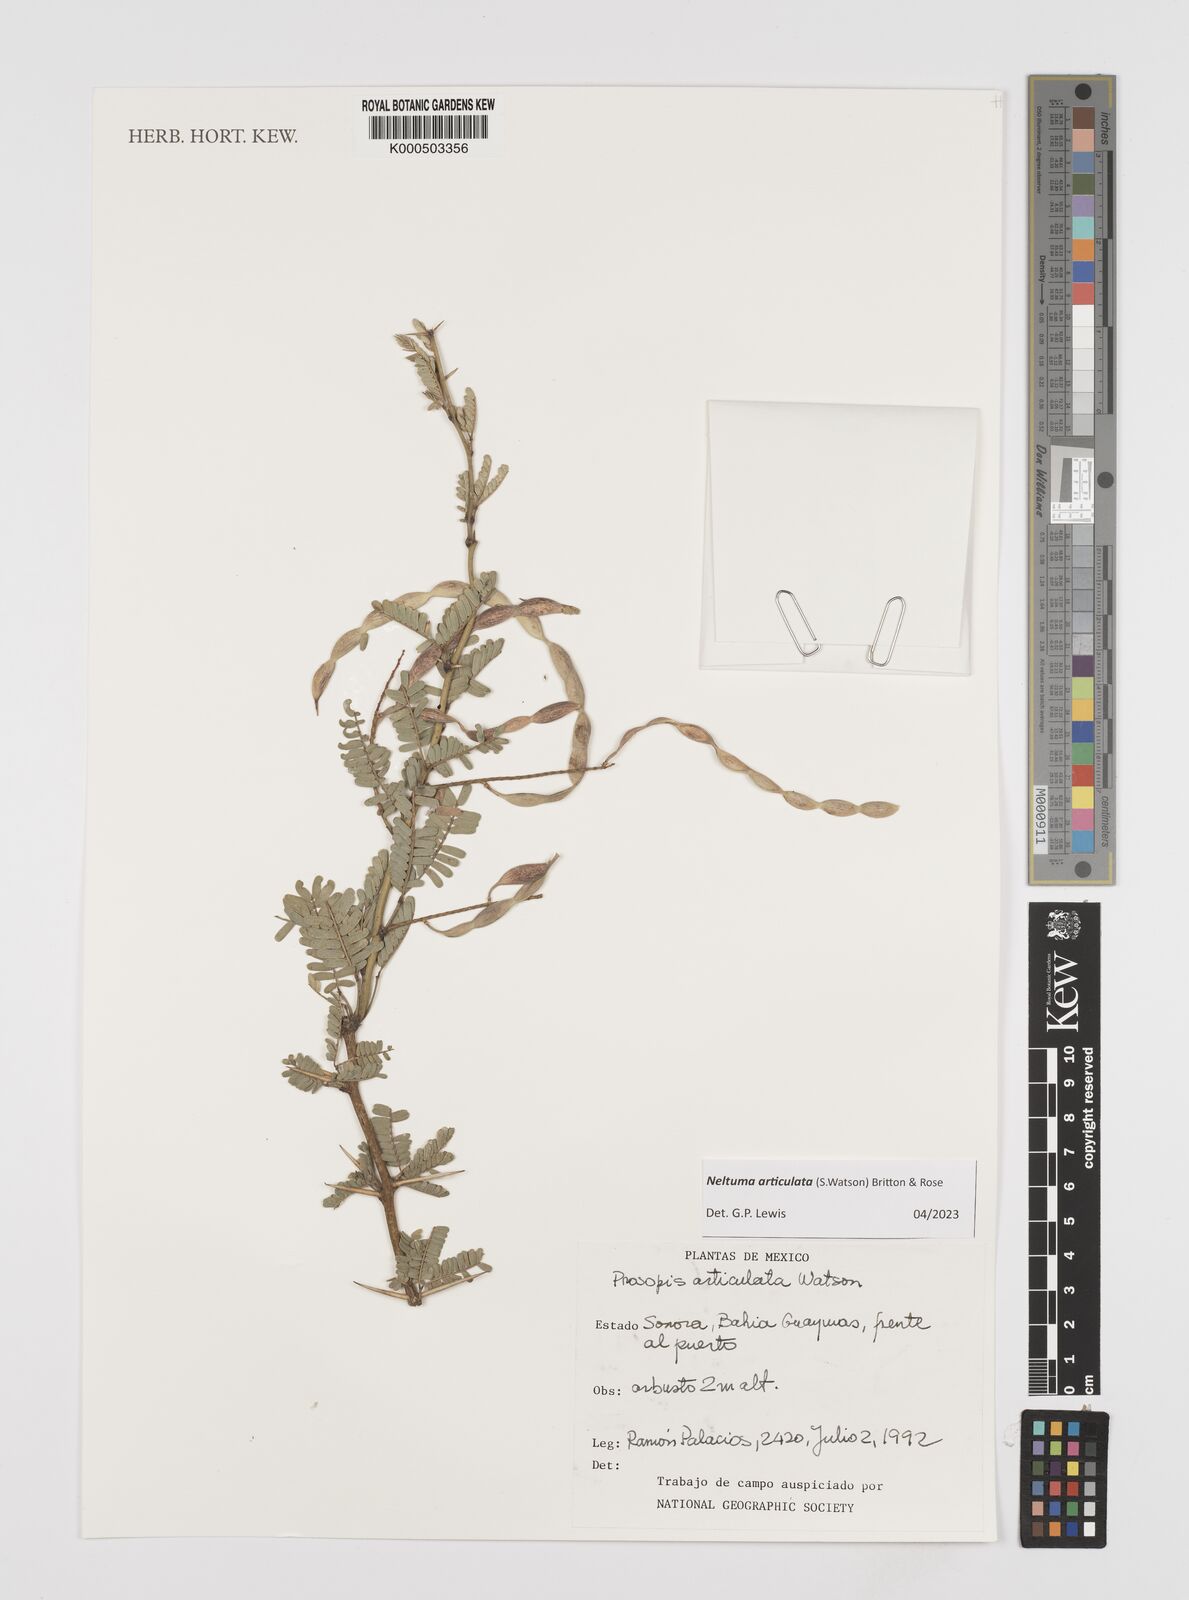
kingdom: Plantae
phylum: Tracheophyta
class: Magnoliopsida
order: Fabales
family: Fabaceae
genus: Prosopis
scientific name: Prosopis articulata
